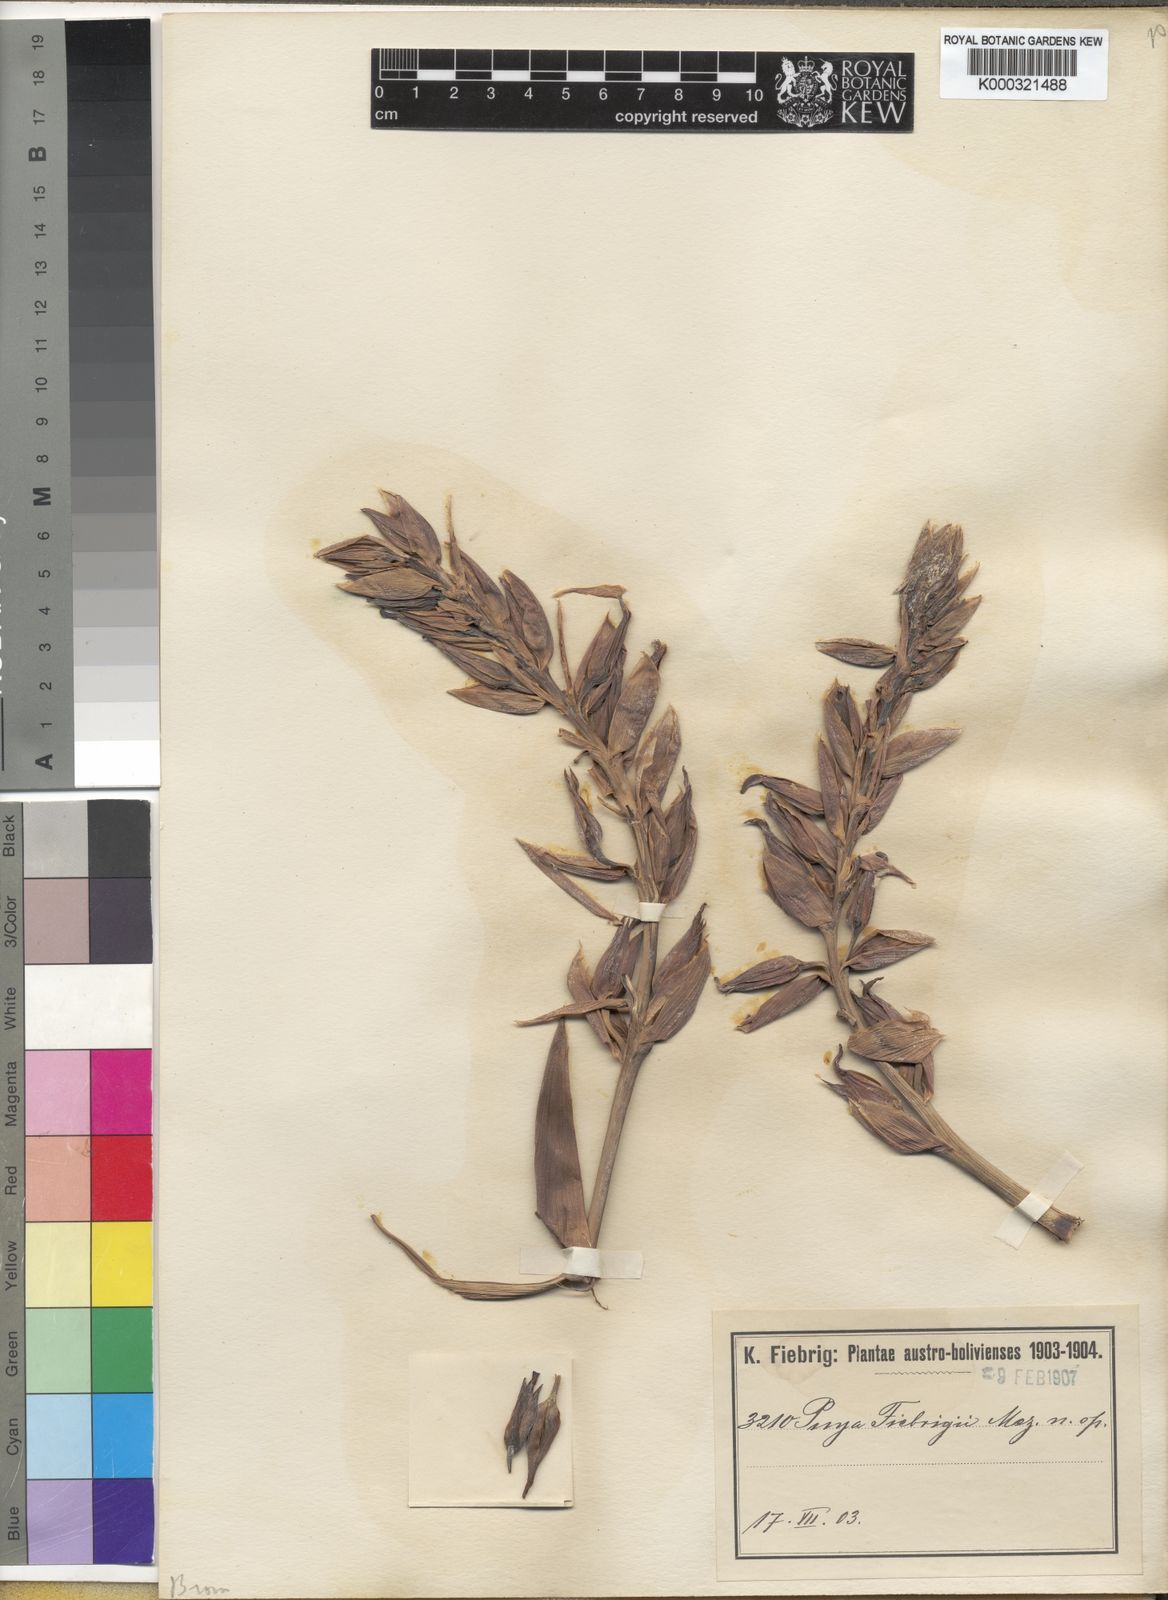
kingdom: Plantae
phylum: Tracheophyta
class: Liliopsida
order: Poales
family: Bromeliaceae
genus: Puya
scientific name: Puya fiebrigii
